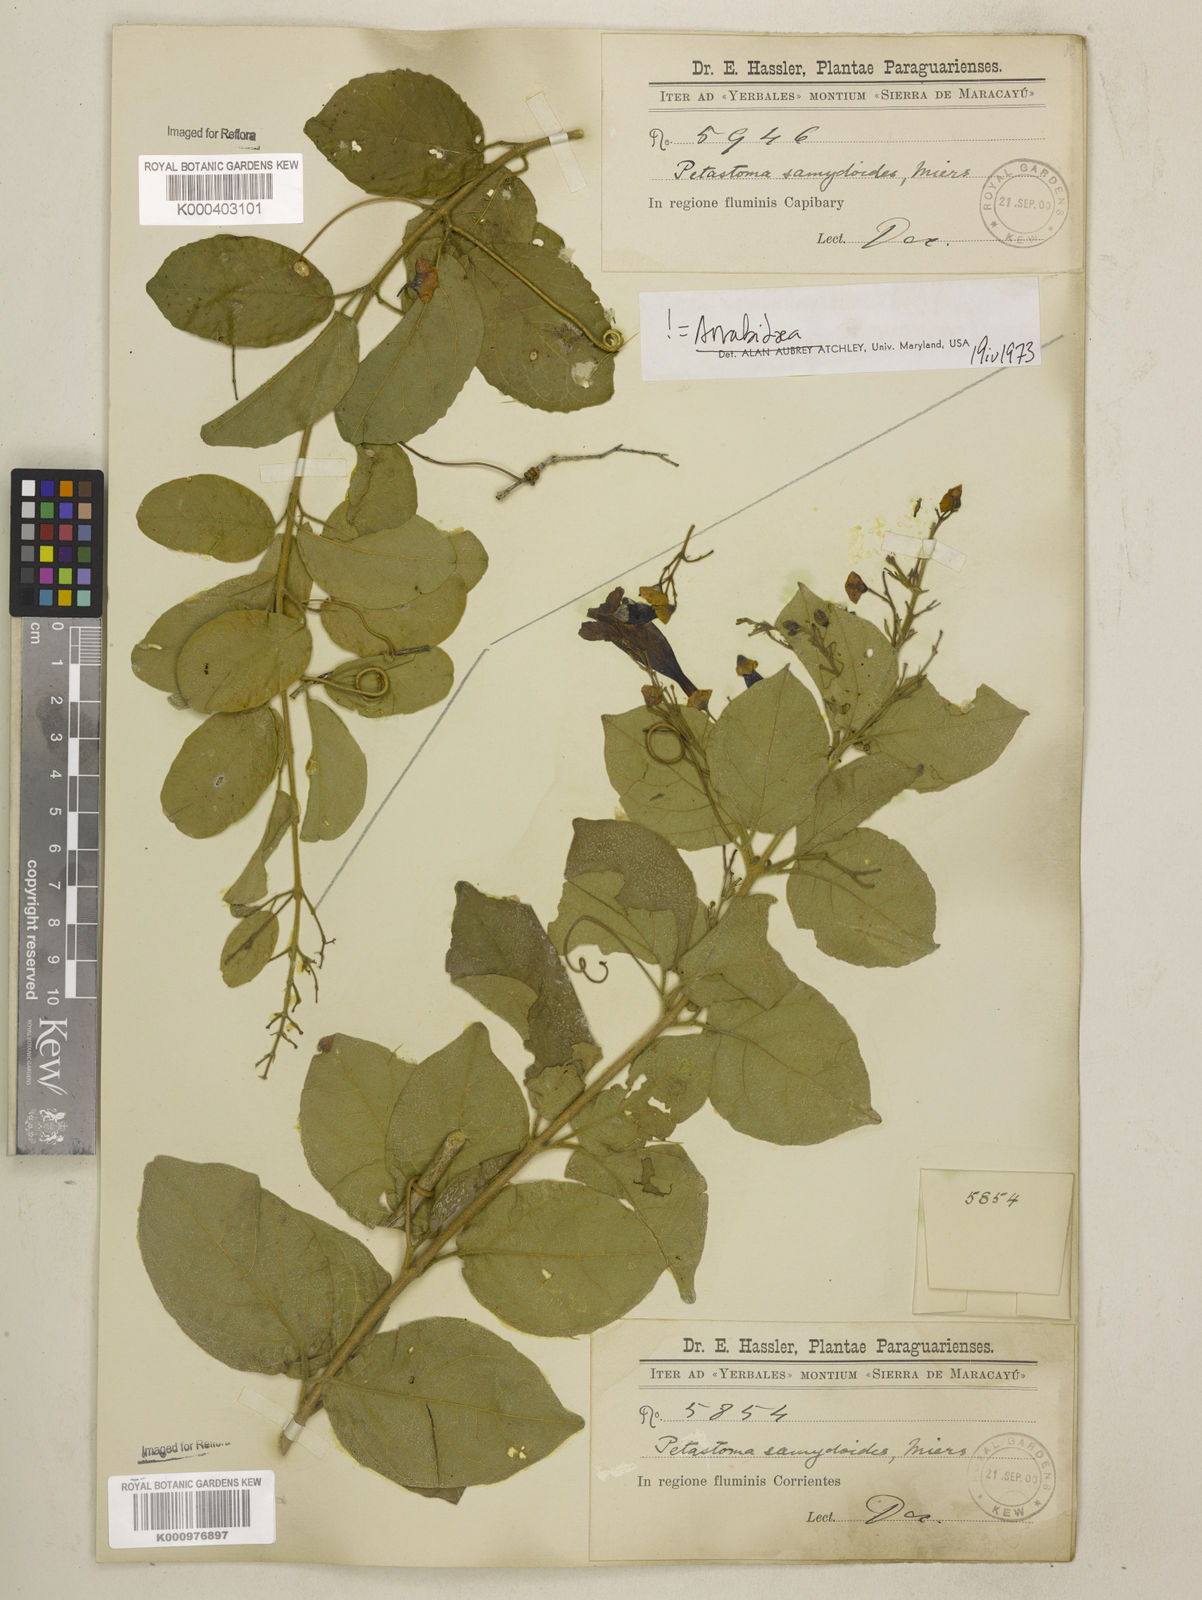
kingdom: Plantae
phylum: Tracheophyta
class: Magnoliopsida
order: Lamiales
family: Bignoniaceae
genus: Fridericia
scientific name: Fridericia samydoides
